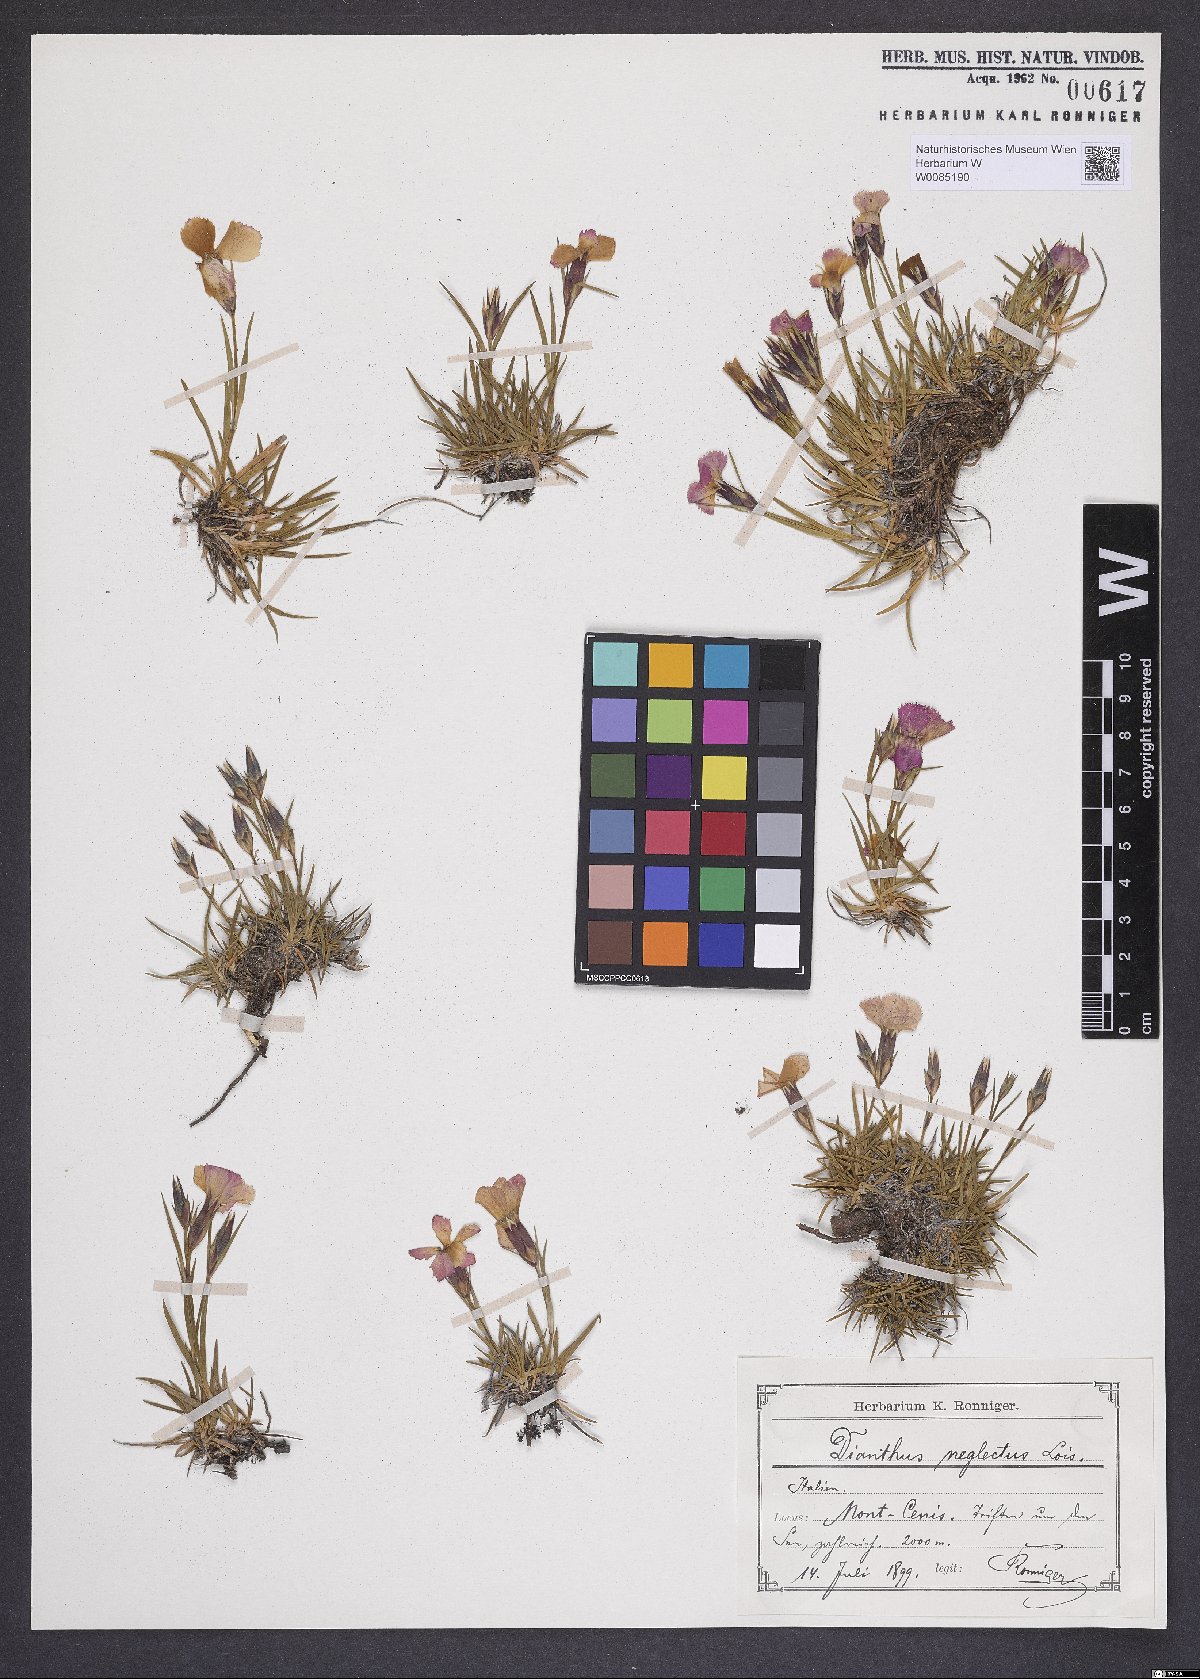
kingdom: Plantae
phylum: Tracheophyta
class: Magnoliopsida
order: Caryophyllales
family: Caryophyllaceae
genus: Dianthus
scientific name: Dianthus pavonius
